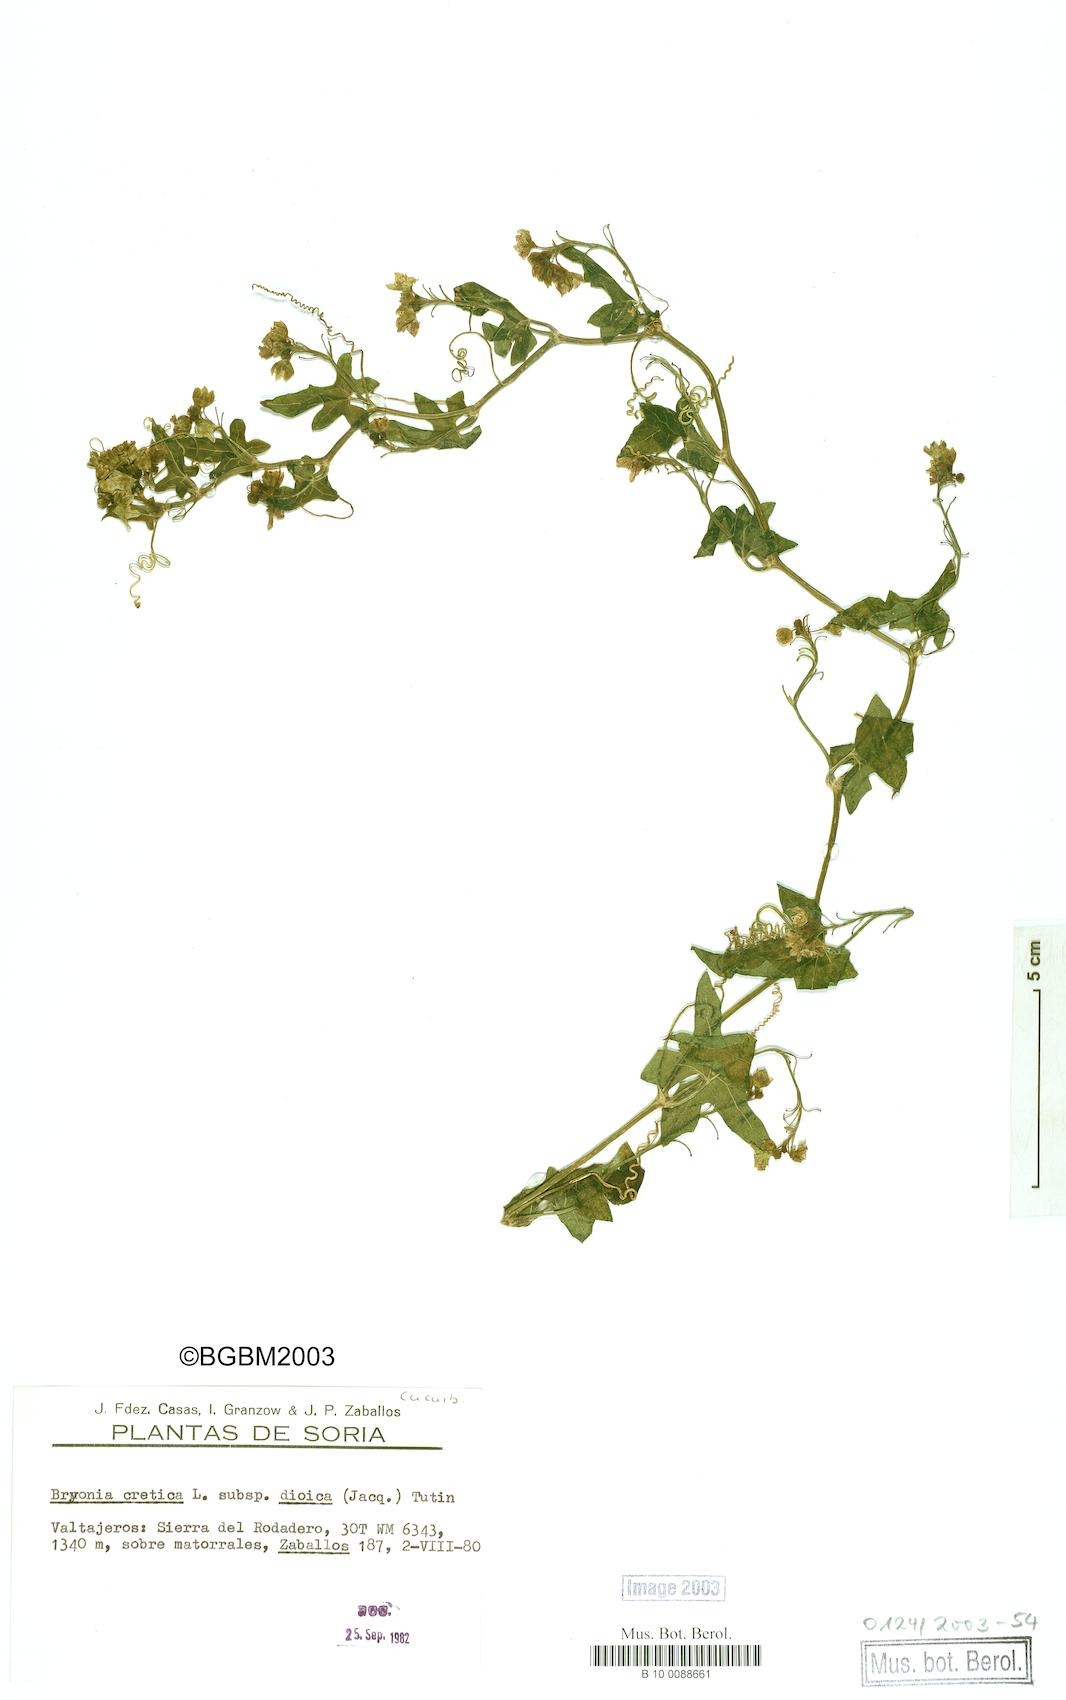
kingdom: Plantae
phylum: Tracheophyta
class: Magnoliopsida
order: Cucurbitales
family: Cucurbitaceae
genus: Bryonia
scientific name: Bryonia dioica
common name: White bryony
